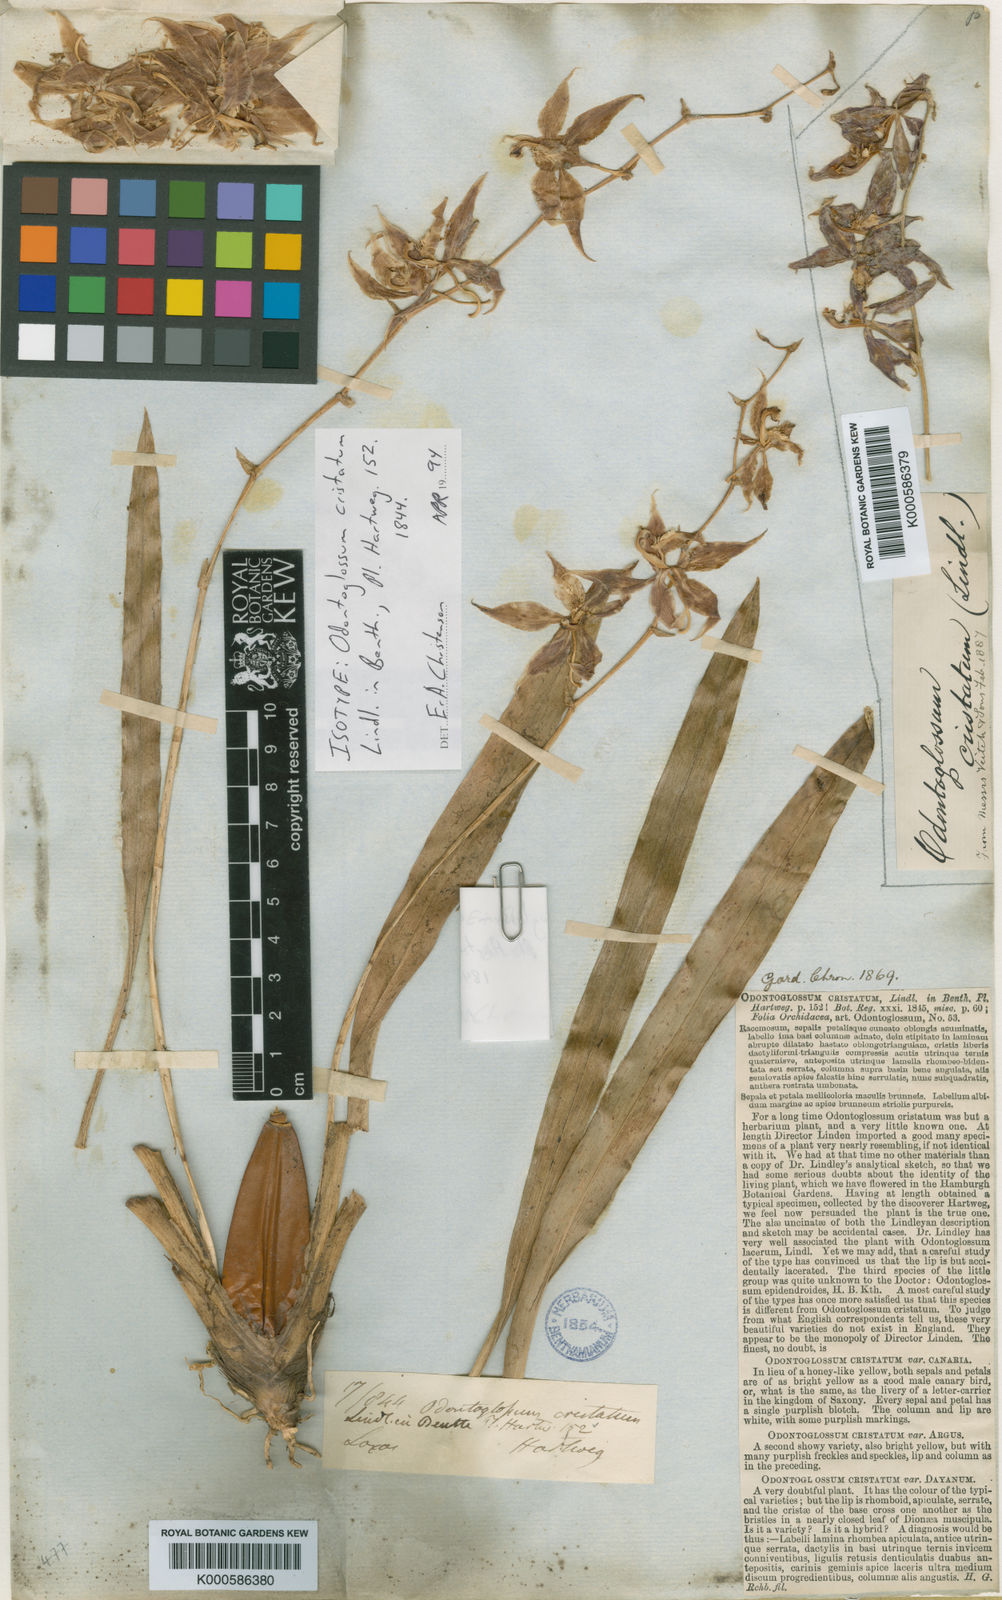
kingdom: Plantae
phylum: Tracheophyta
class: Liliopsida
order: Asparagales
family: Orchidaceae
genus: Oncidium
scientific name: Oncidium cristatum
